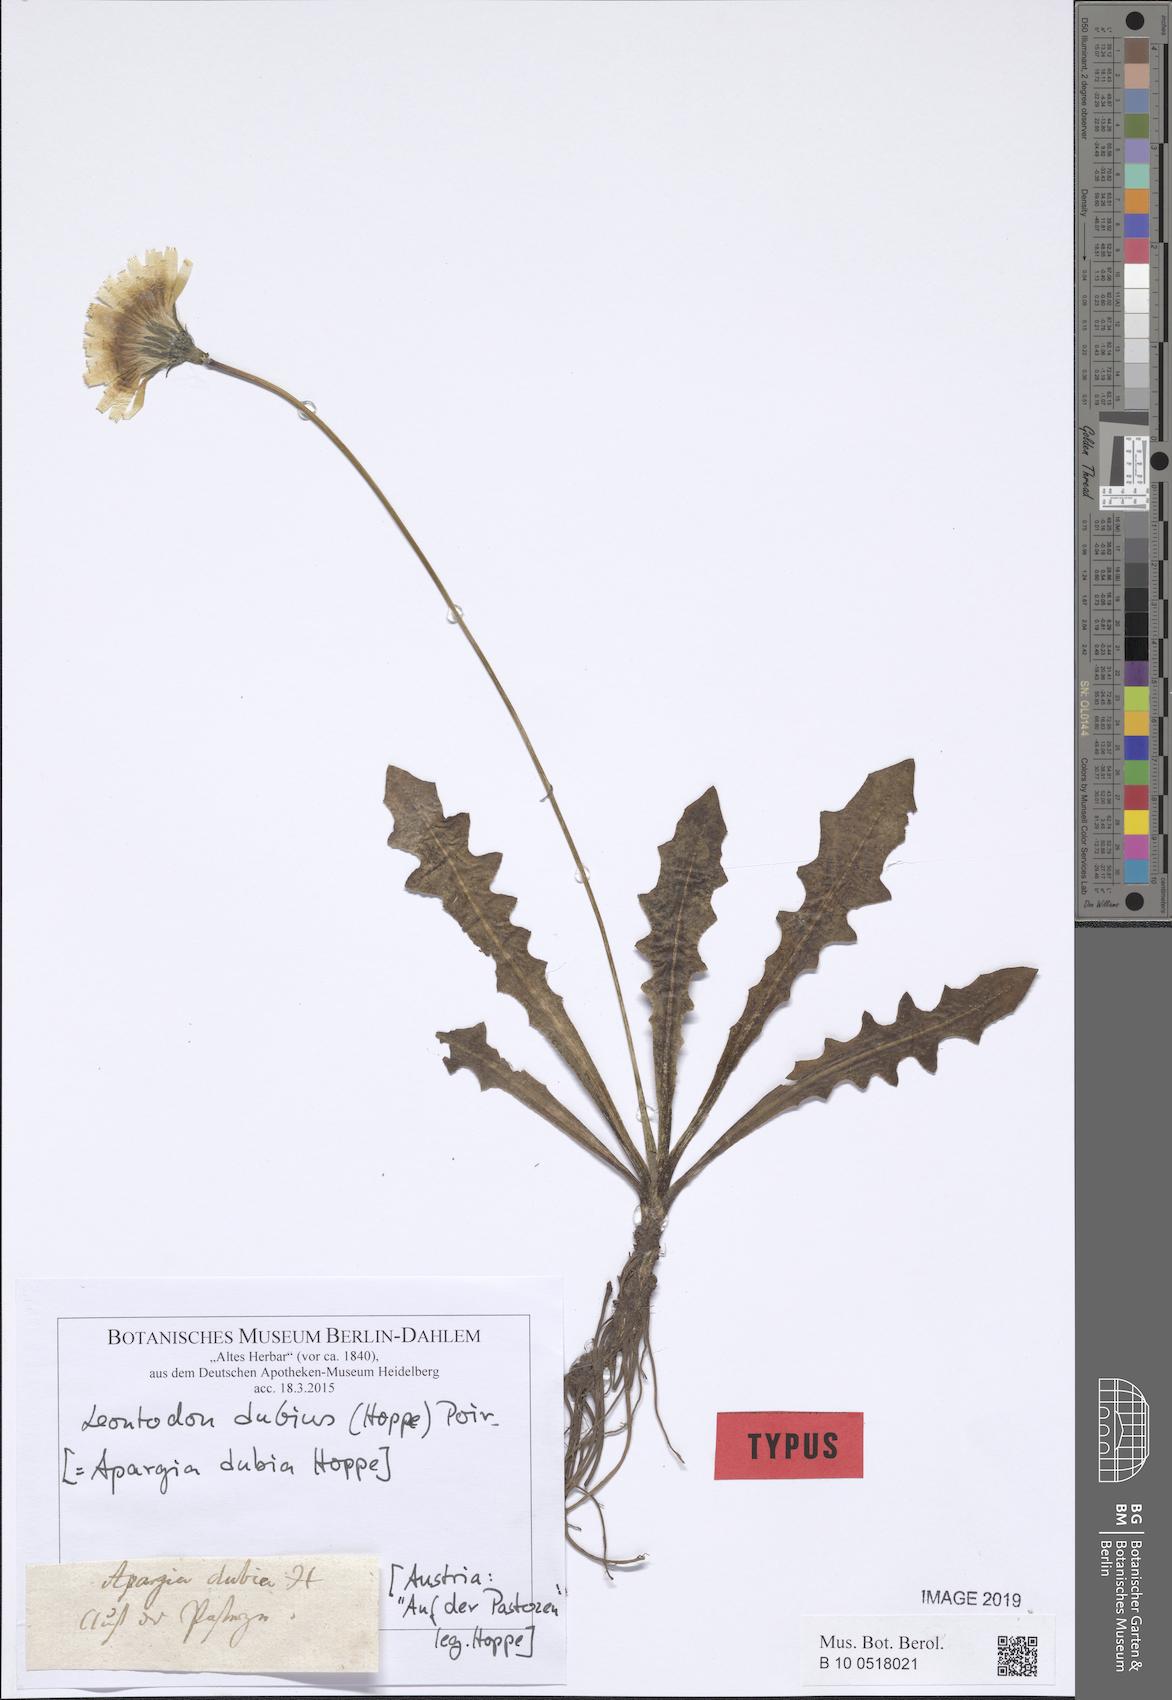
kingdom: Plantae
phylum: Tracheophyta
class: Magnoliopsida
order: Asterales
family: Asteraceae
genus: Leontodon
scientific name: Leontodon hispidus
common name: Rough hawkbit
